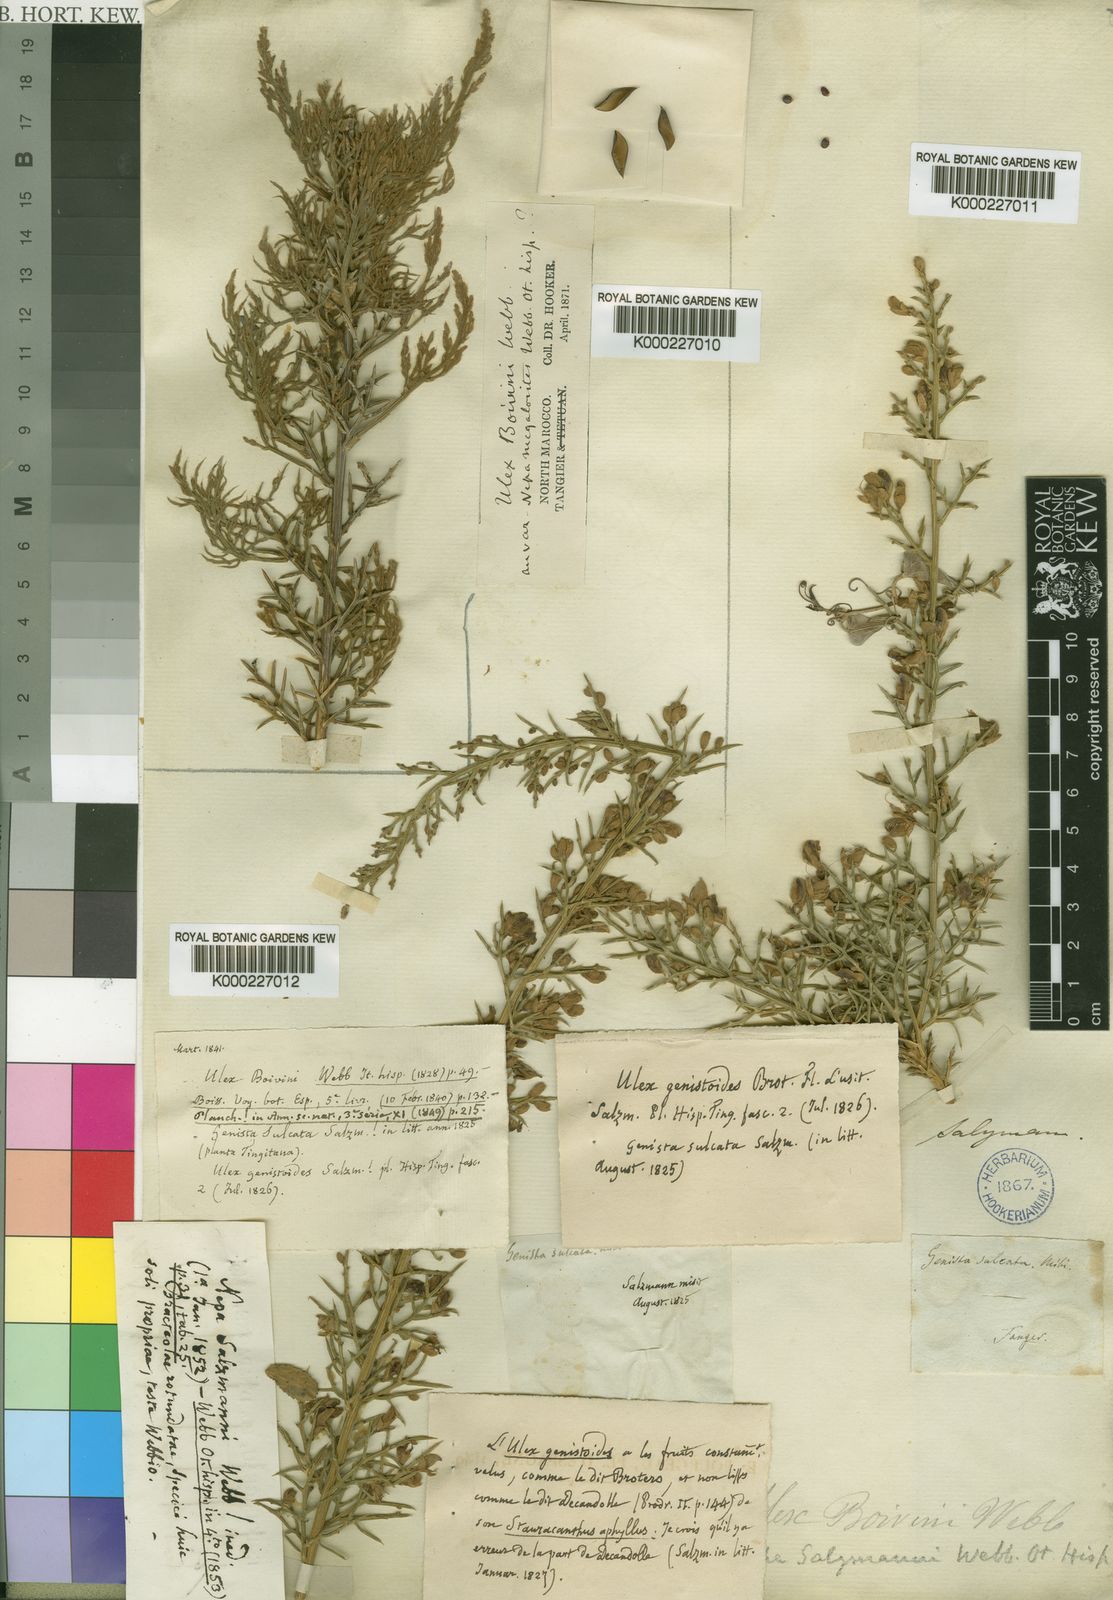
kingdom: Plantae
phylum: Tracheophyta
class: Magnoliopsida
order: Fabales
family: Fabaceae
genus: Stauracanthus
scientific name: Stauracanthus boivinii
